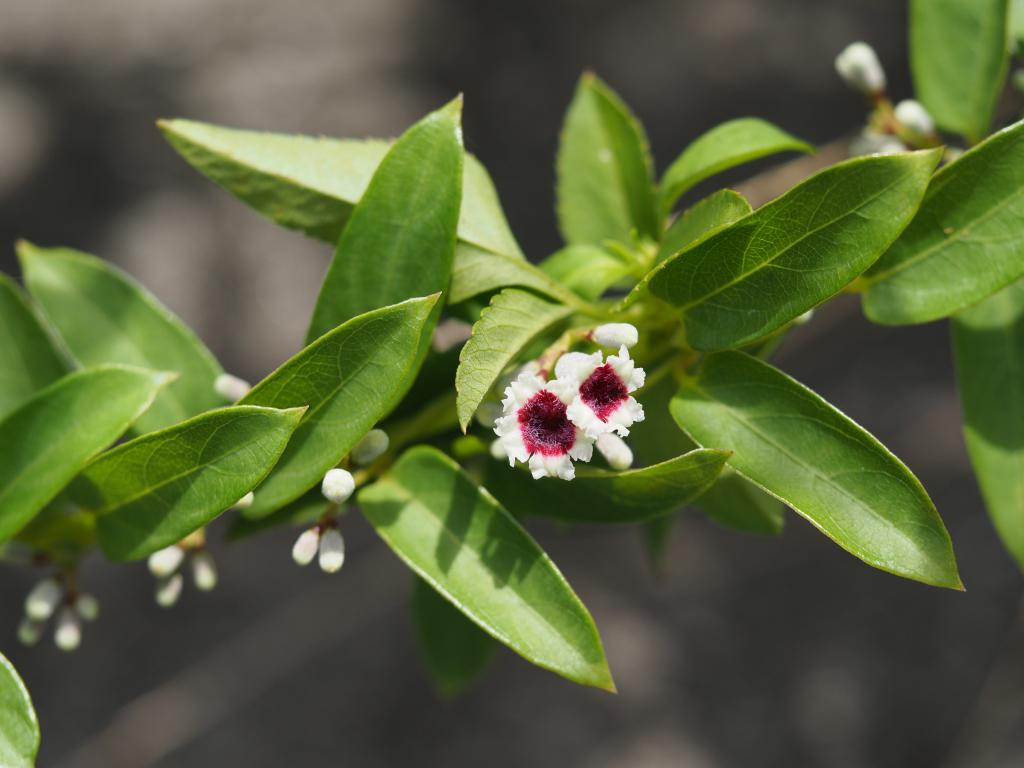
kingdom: Plantae
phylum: Tracheophyta
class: Magnoliopsida
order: Gentianales
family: Rubiaceae
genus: Paederia
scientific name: Paederia foetida
